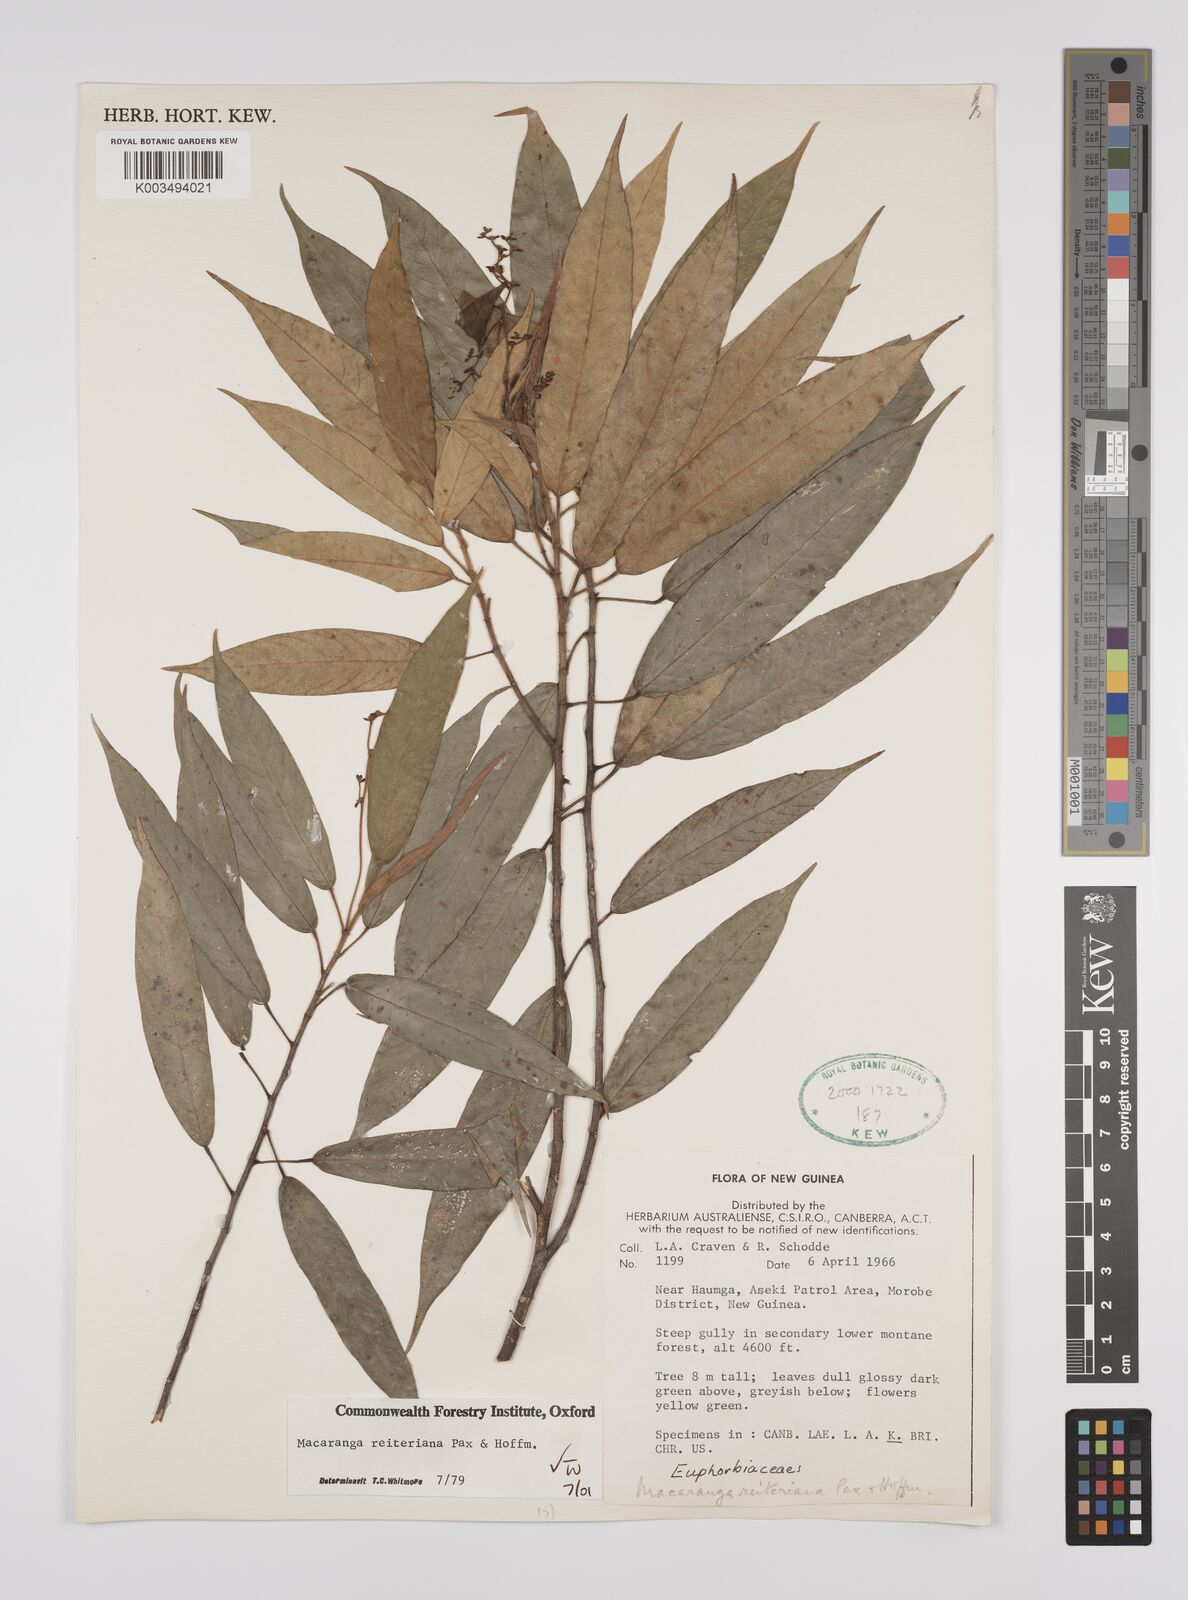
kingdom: Plantae
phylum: Tracheophyta
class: Magnoliopsida
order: Malpighiales
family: Euphorbiaceae
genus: Macaranga
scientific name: Macaranga reiteriana
